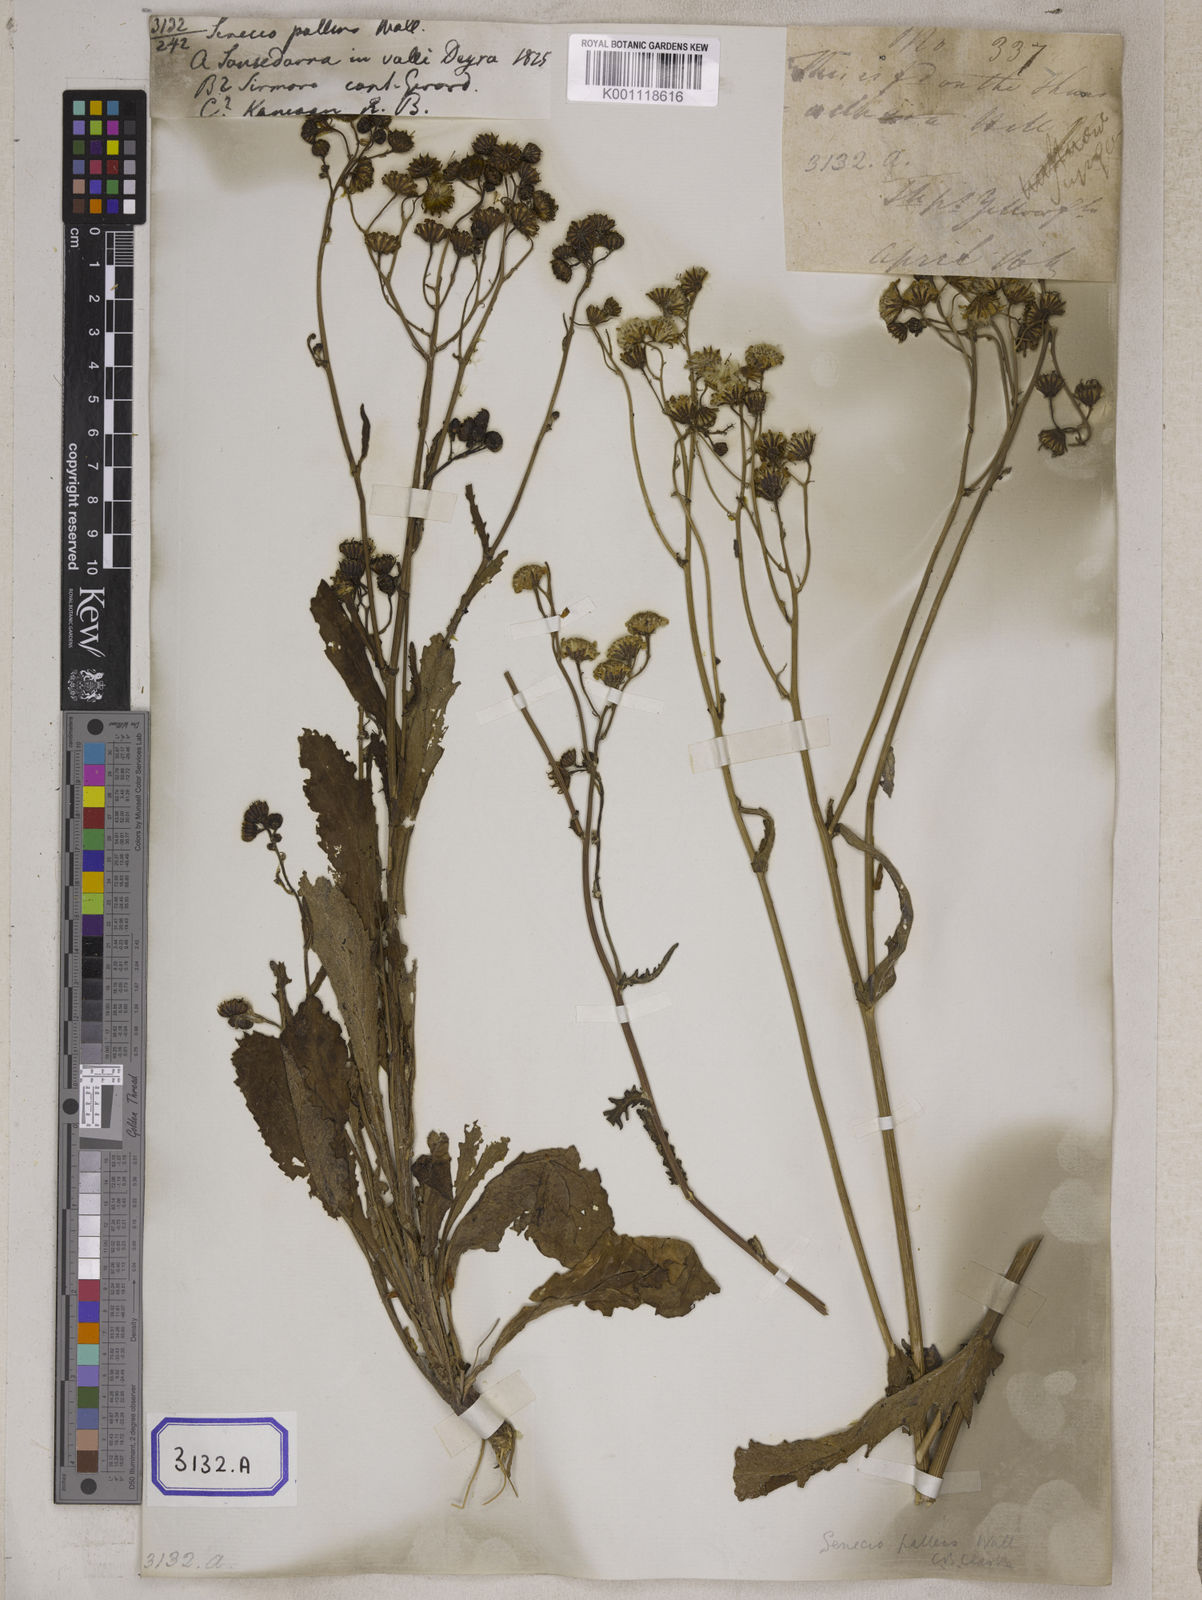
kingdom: Plantae
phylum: Tracheophyta
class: Magnoliopsida
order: Asterales
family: Asteraceae
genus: Senecio
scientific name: Senecio pallens
